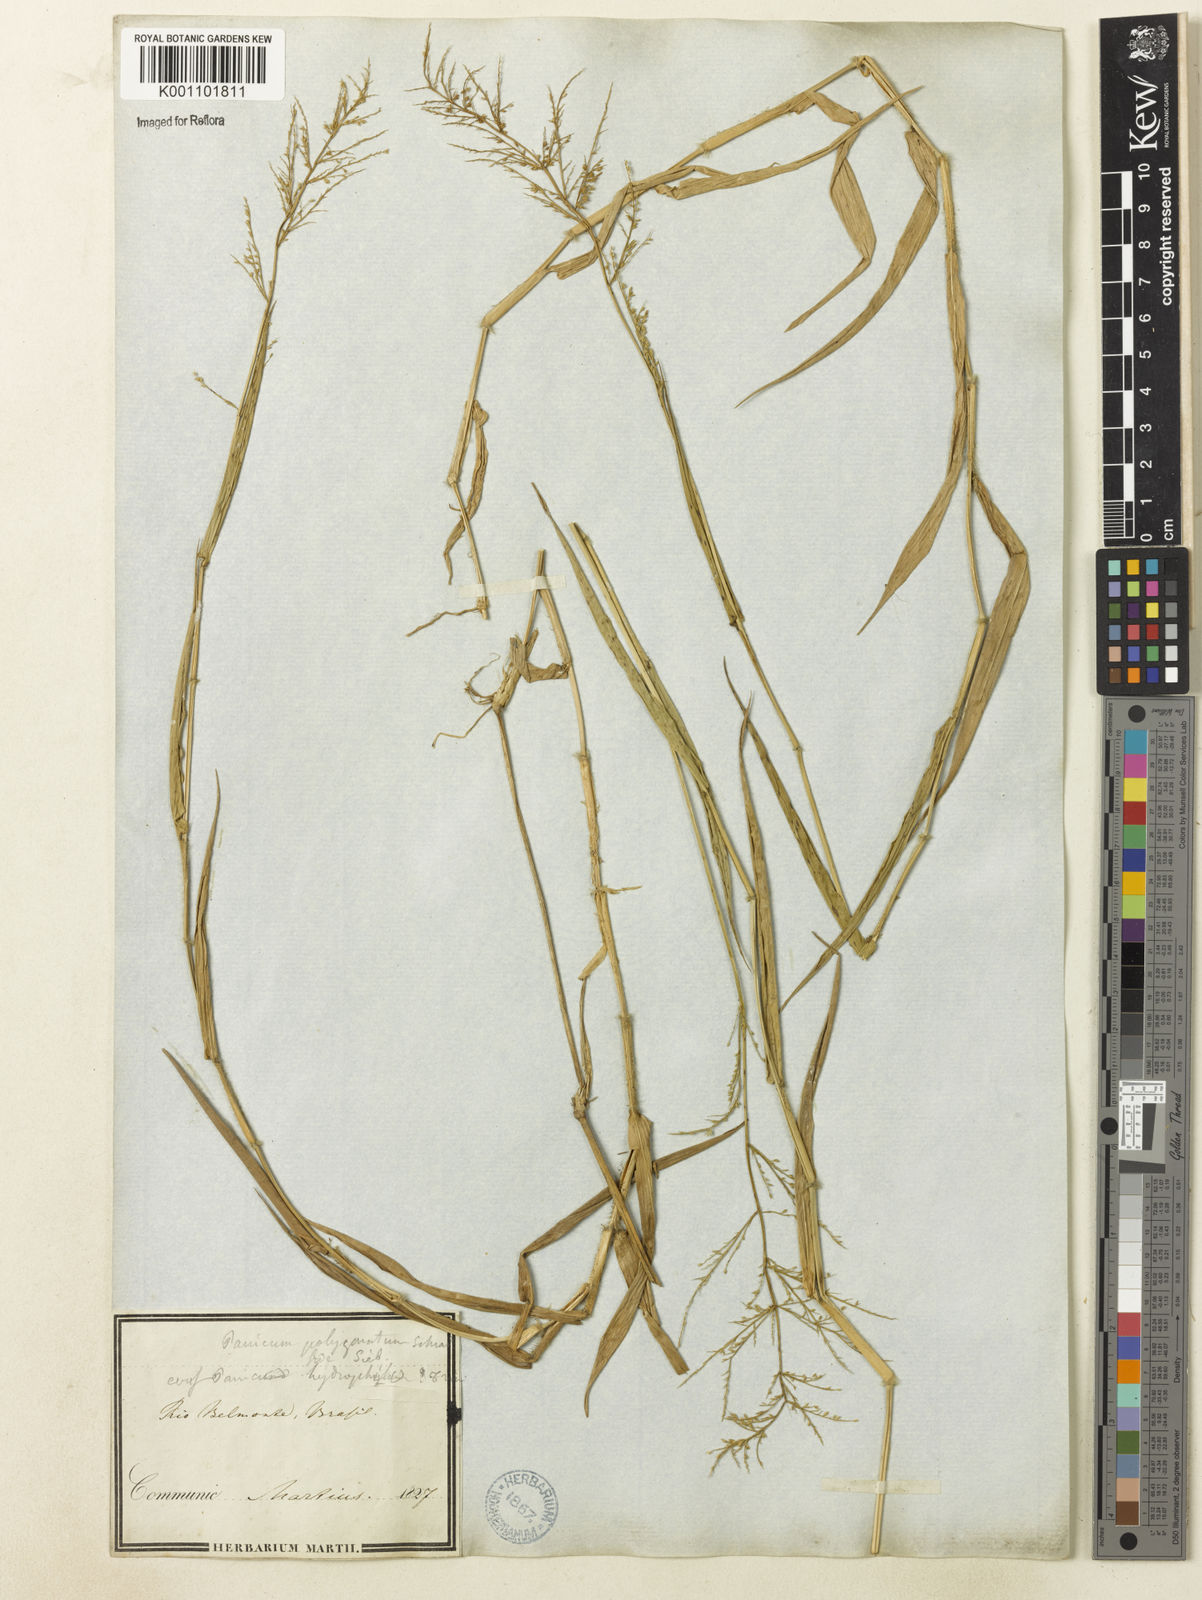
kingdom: Plantae
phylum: Tracheophyta
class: Liliopsida
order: Poales
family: Poaceae
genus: Rugoloa
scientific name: Rugoloa polygonata
